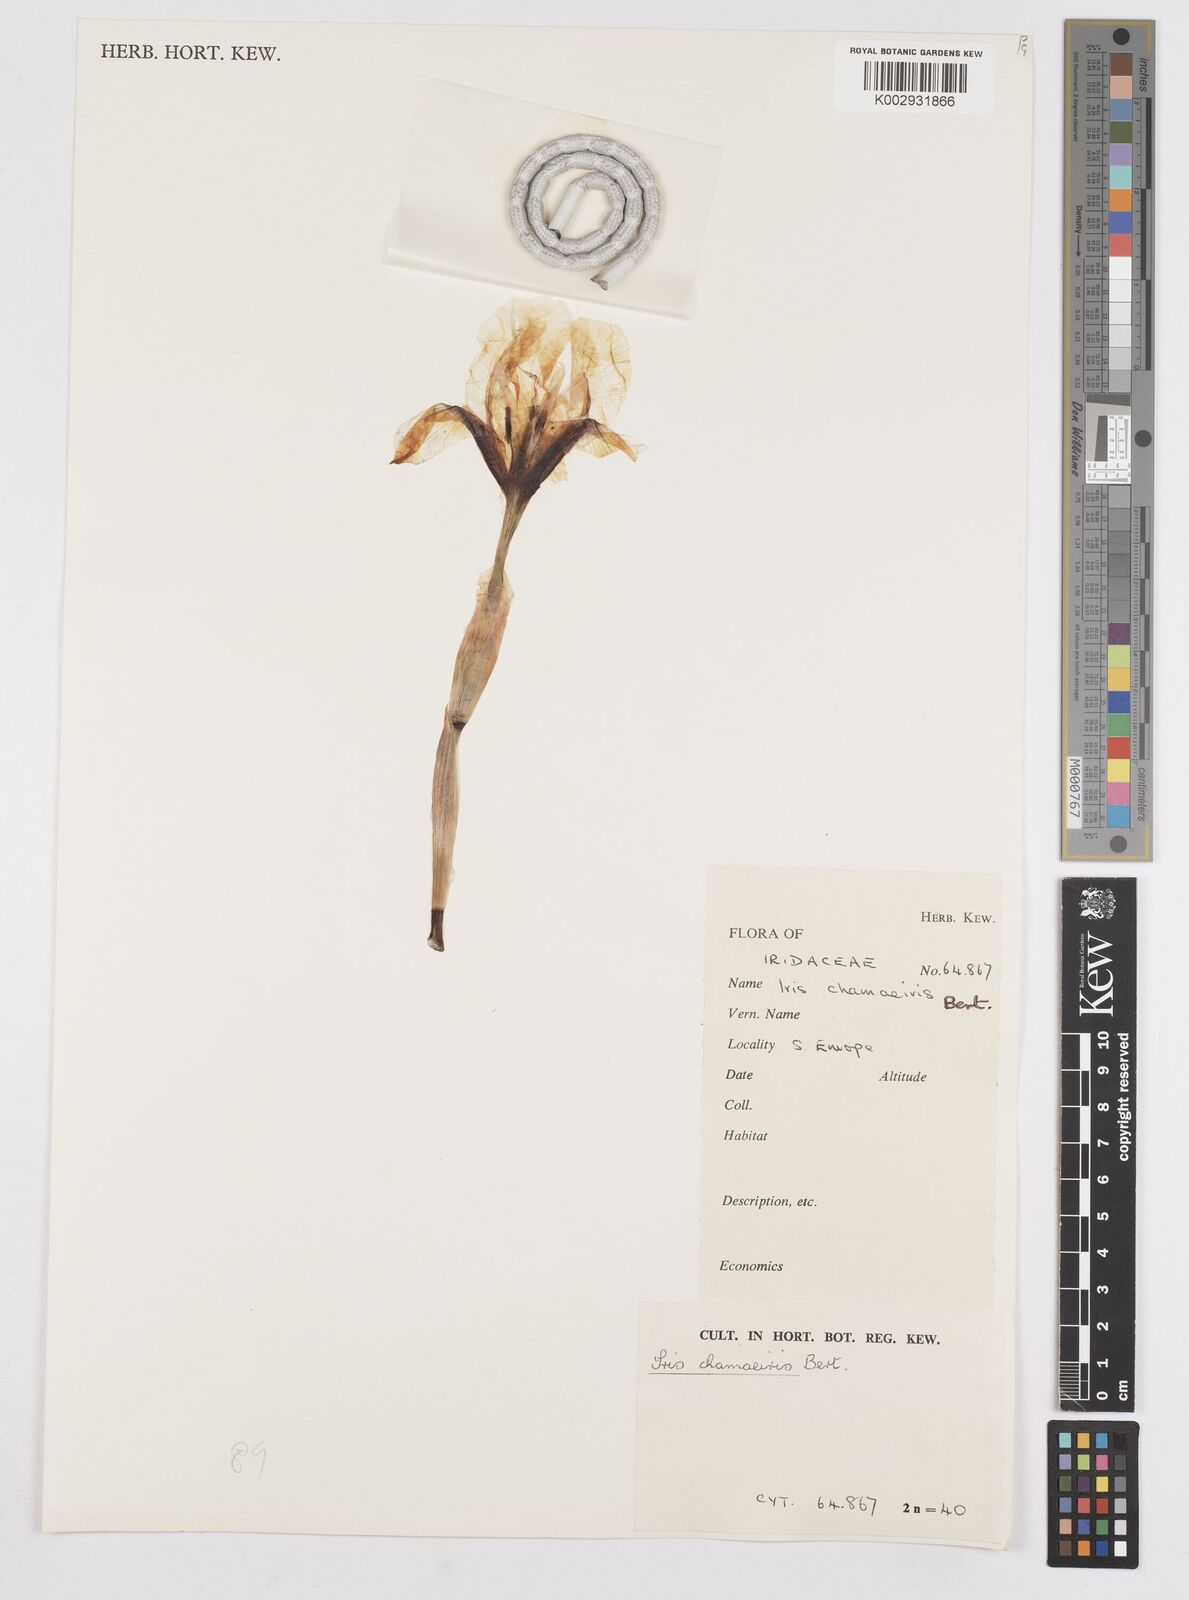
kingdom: Plantae
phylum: Tracheophyta
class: Liliopsida
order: Asparagales
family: Iridaceae
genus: Iris
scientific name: Iris lutescens
